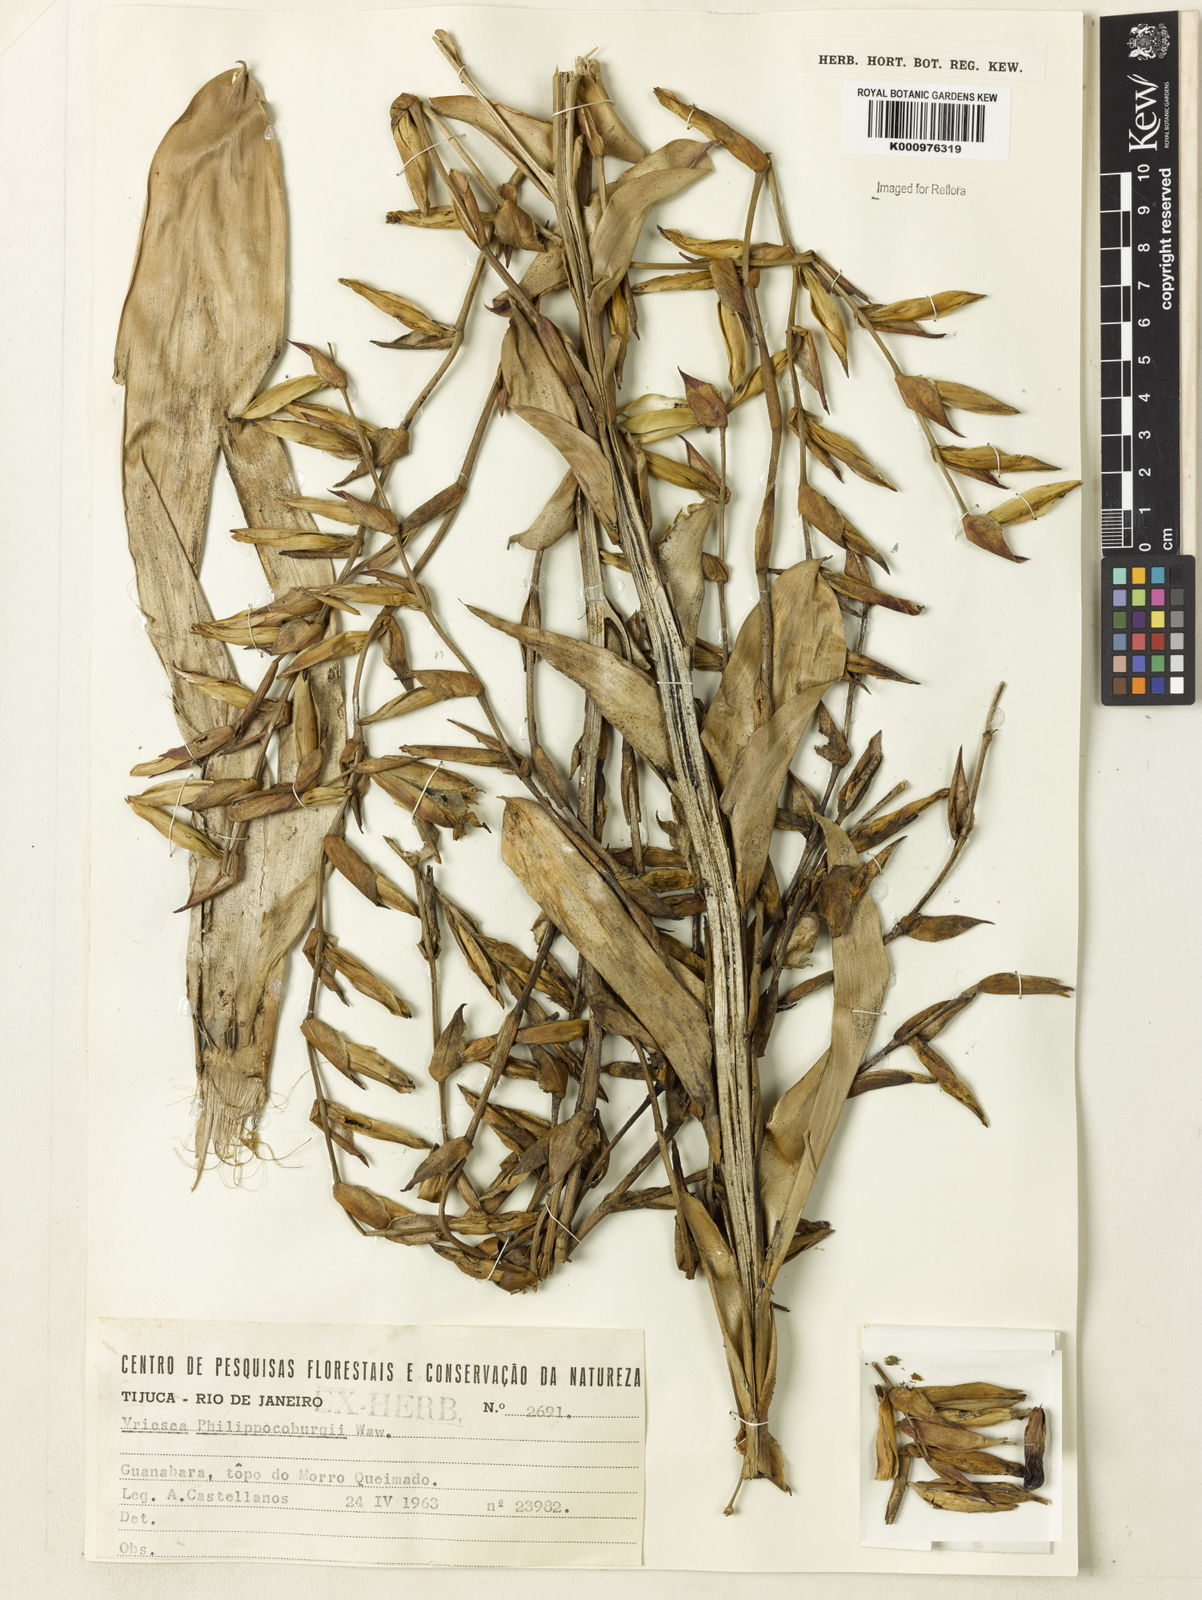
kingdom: Plantae
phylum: Tracheophyta
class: Liliopsida
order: Poales
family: Bromeliaceae
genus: Vriesea
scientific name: Vriesea philippocoburgi
